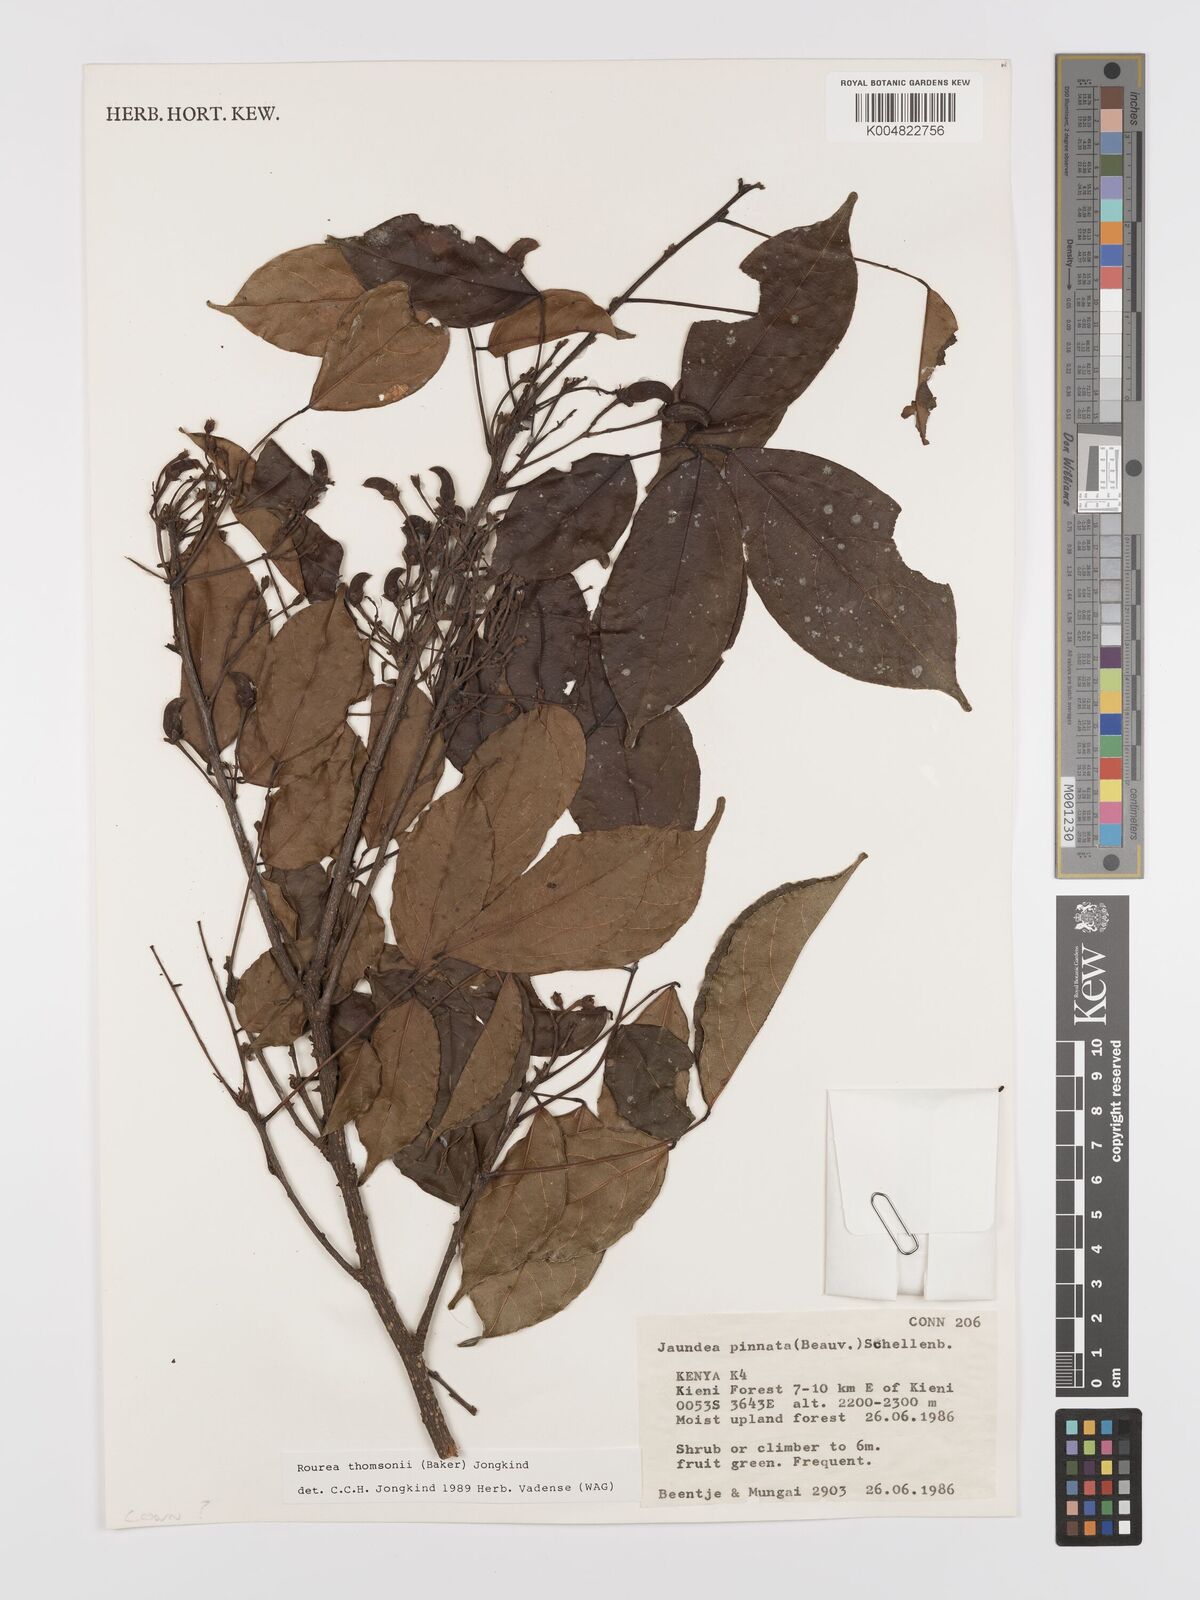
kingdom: Plantae
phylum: Tracheophyta
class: Magnoliopsida
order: Oxalidales
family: Connaraceae
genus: Rourea
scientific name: Rourea thomsonii
